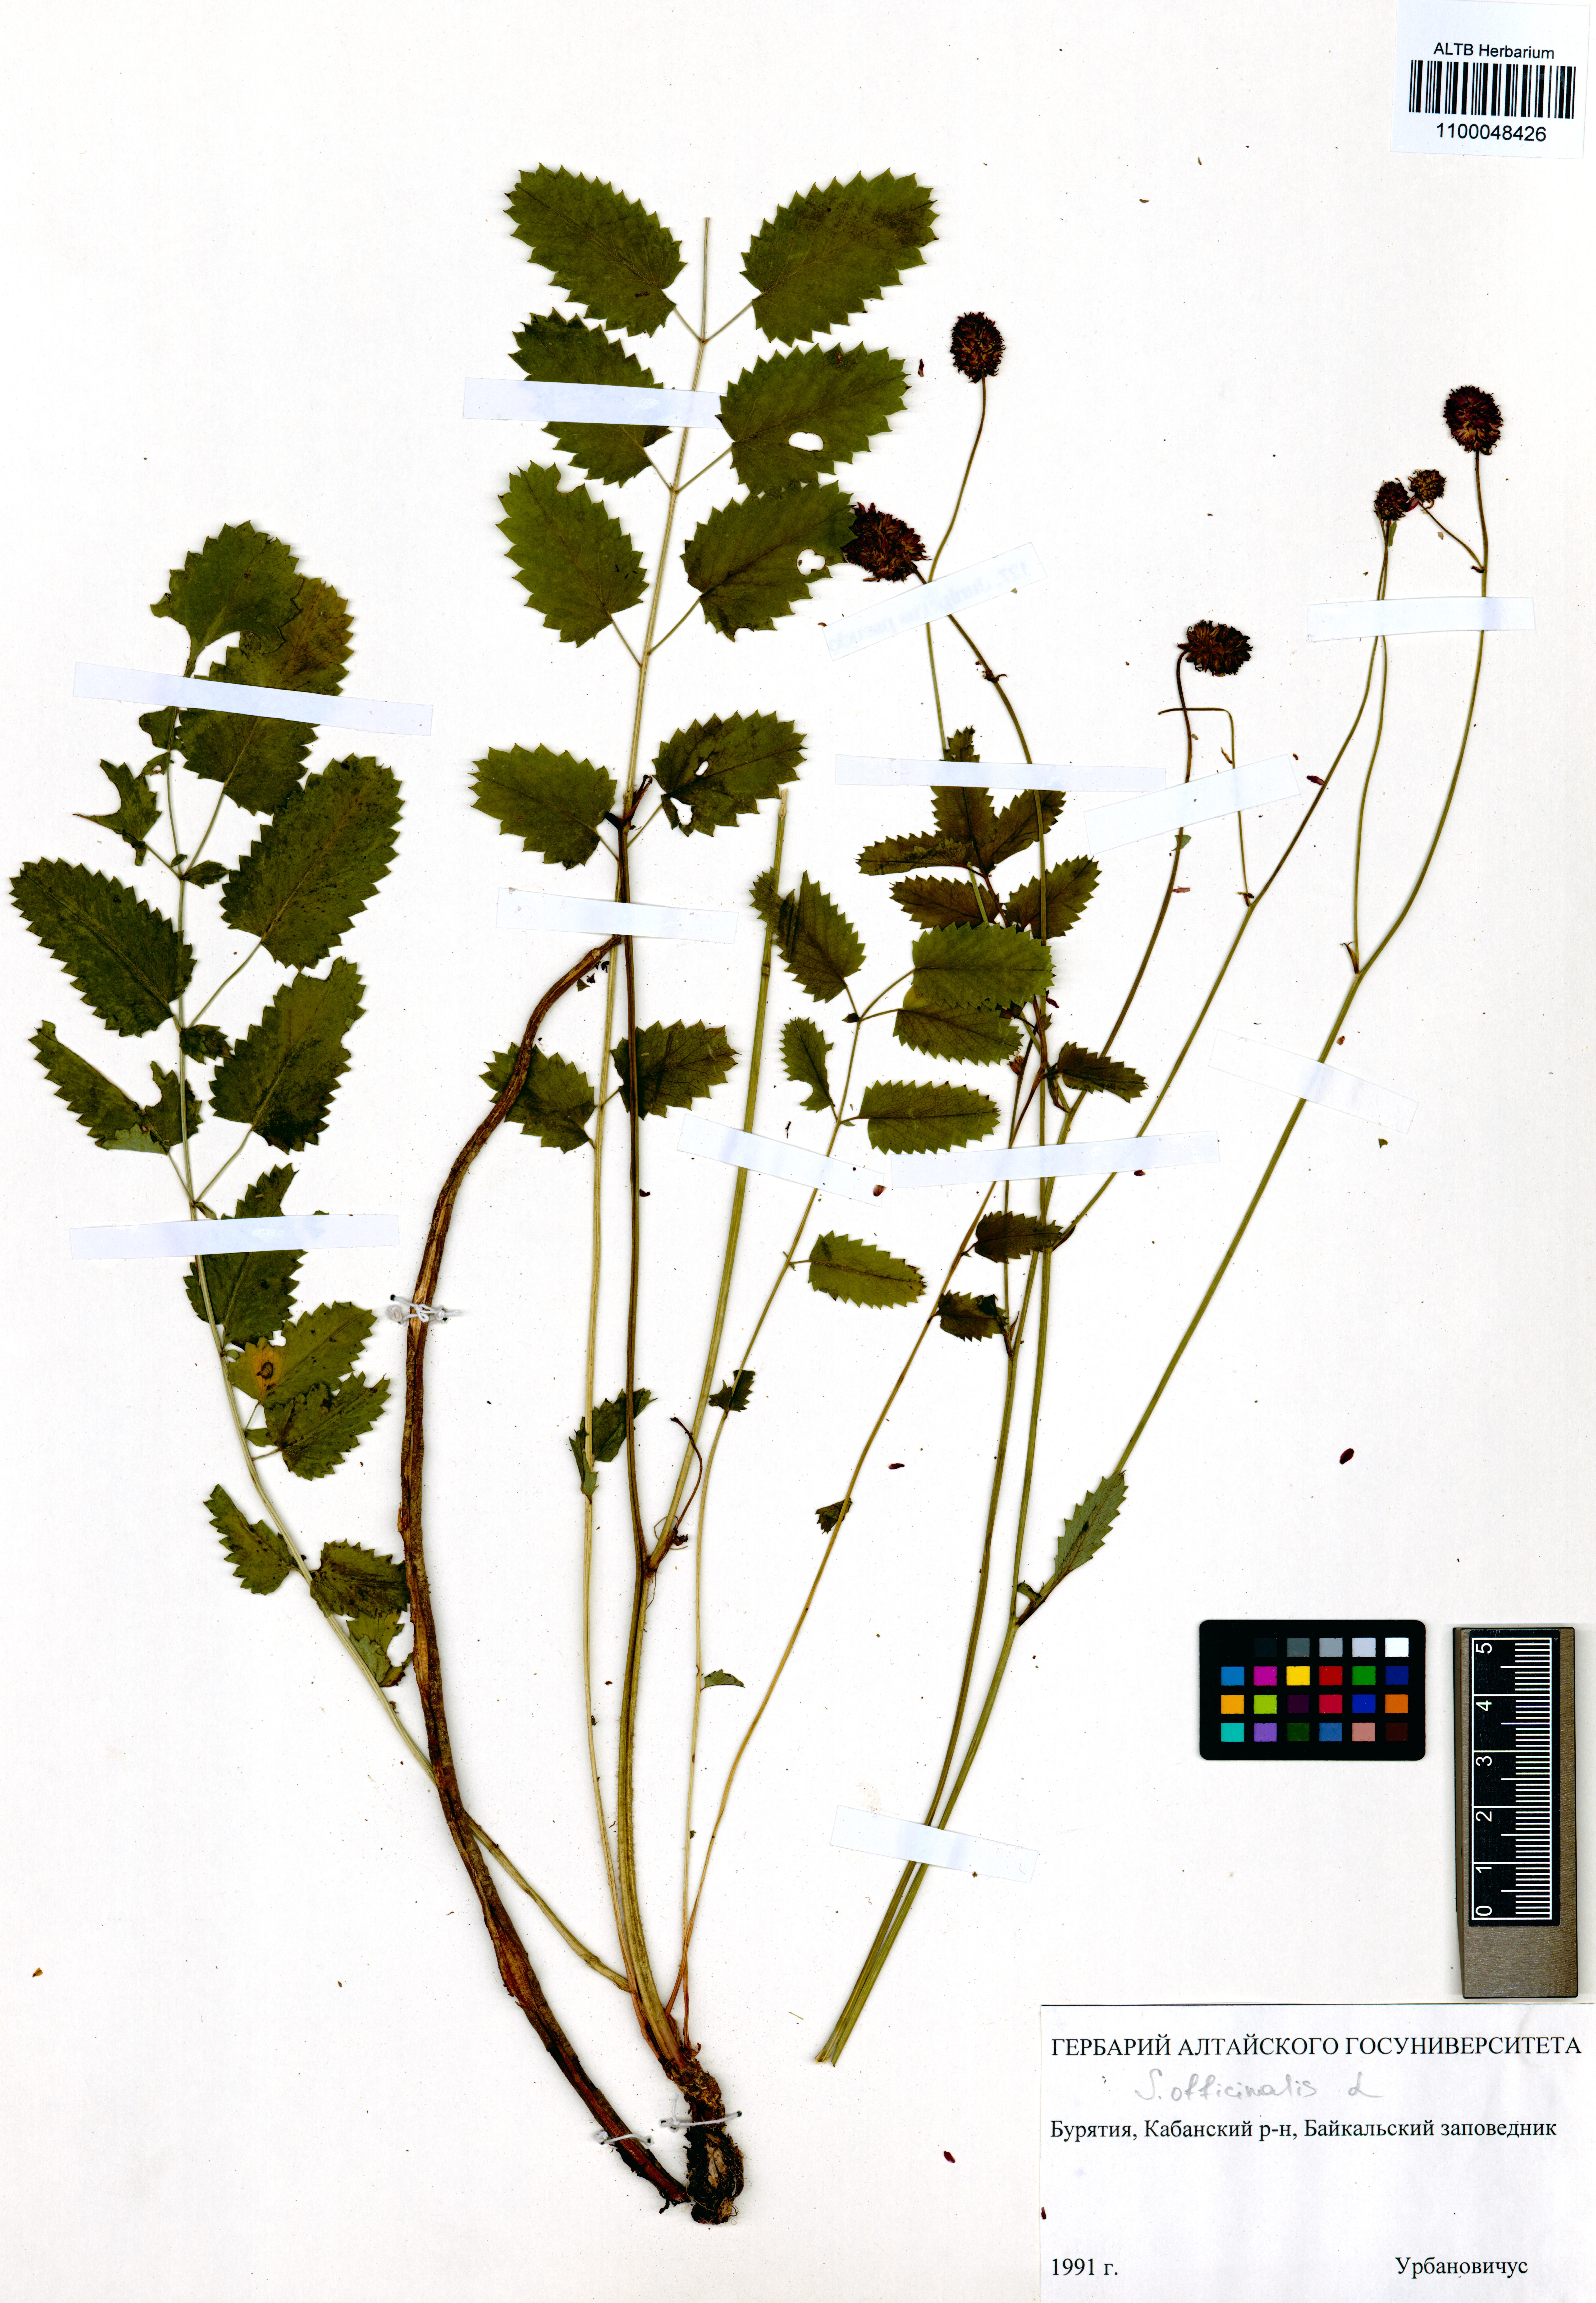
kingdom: Plantae
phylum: Tracheophyta
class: Magnoliopsida
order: Rosales
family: Rosaceae
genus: Sanguisorba
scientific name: Sanguisorba officinalis
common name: Great burnet
